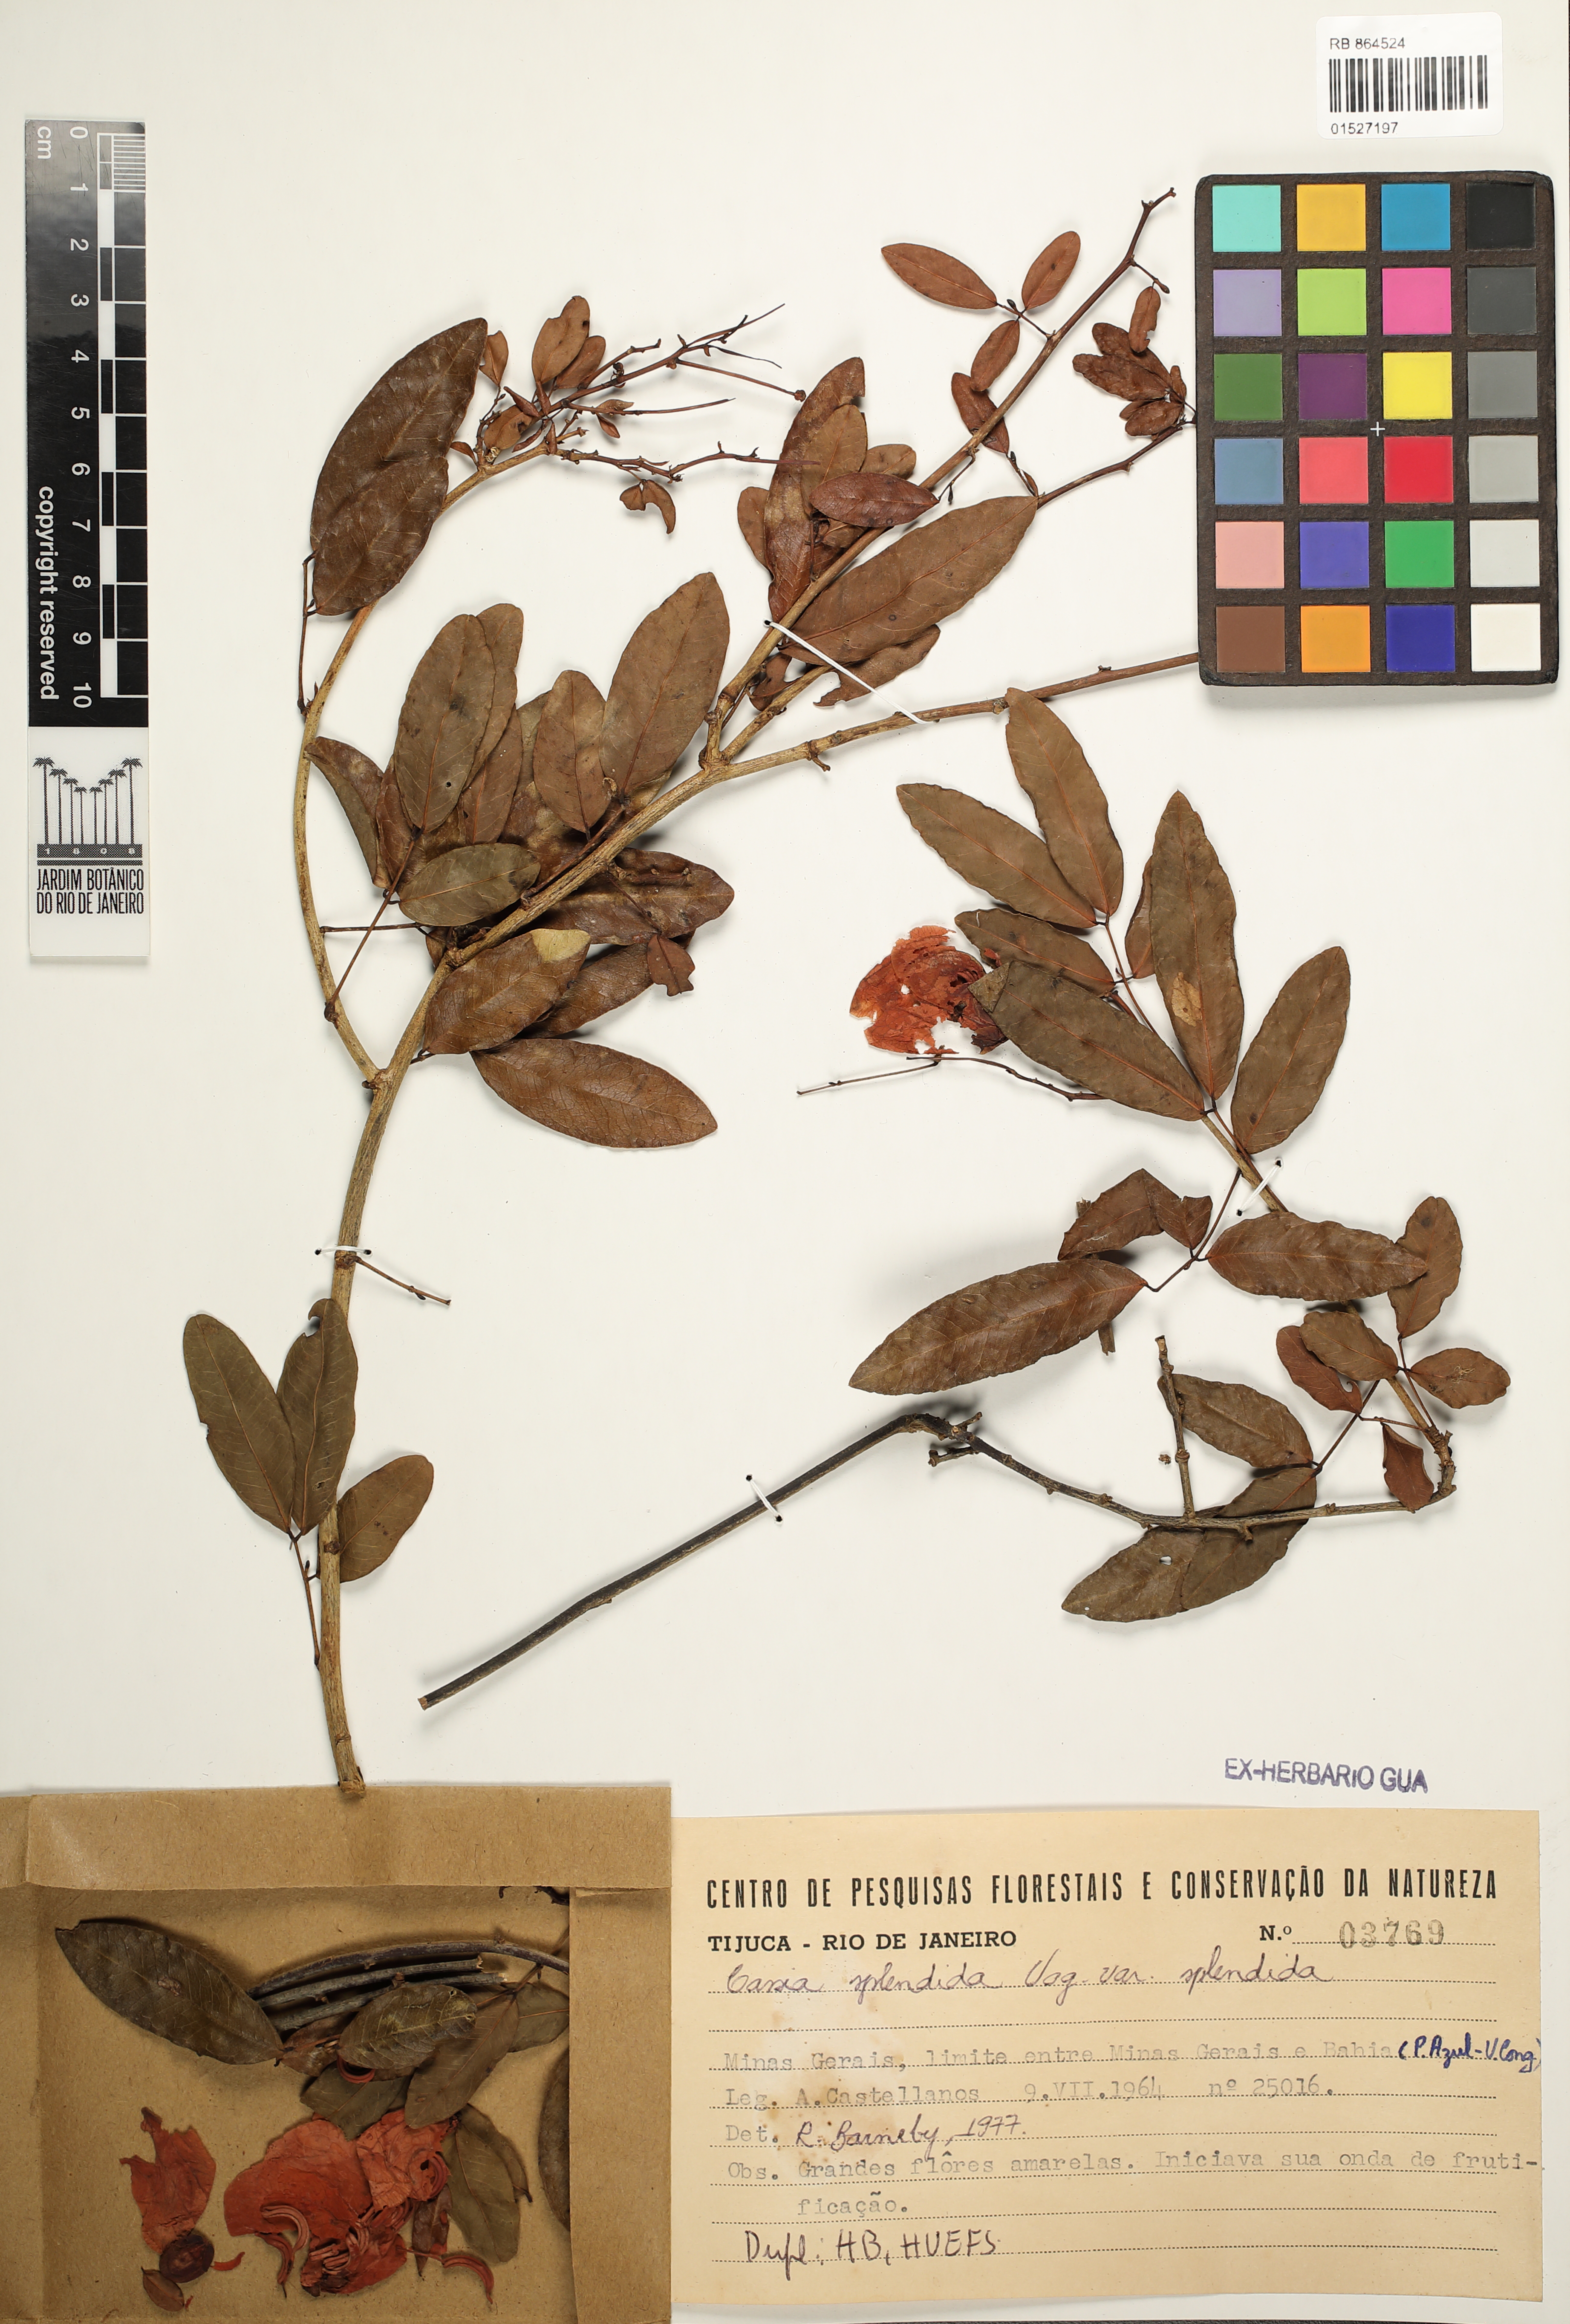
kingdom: Plantae
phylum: Tracheophyta
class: Magnoliopsida
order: Fabales
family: Fabaceae
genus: Senna
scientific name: Senna splendida
